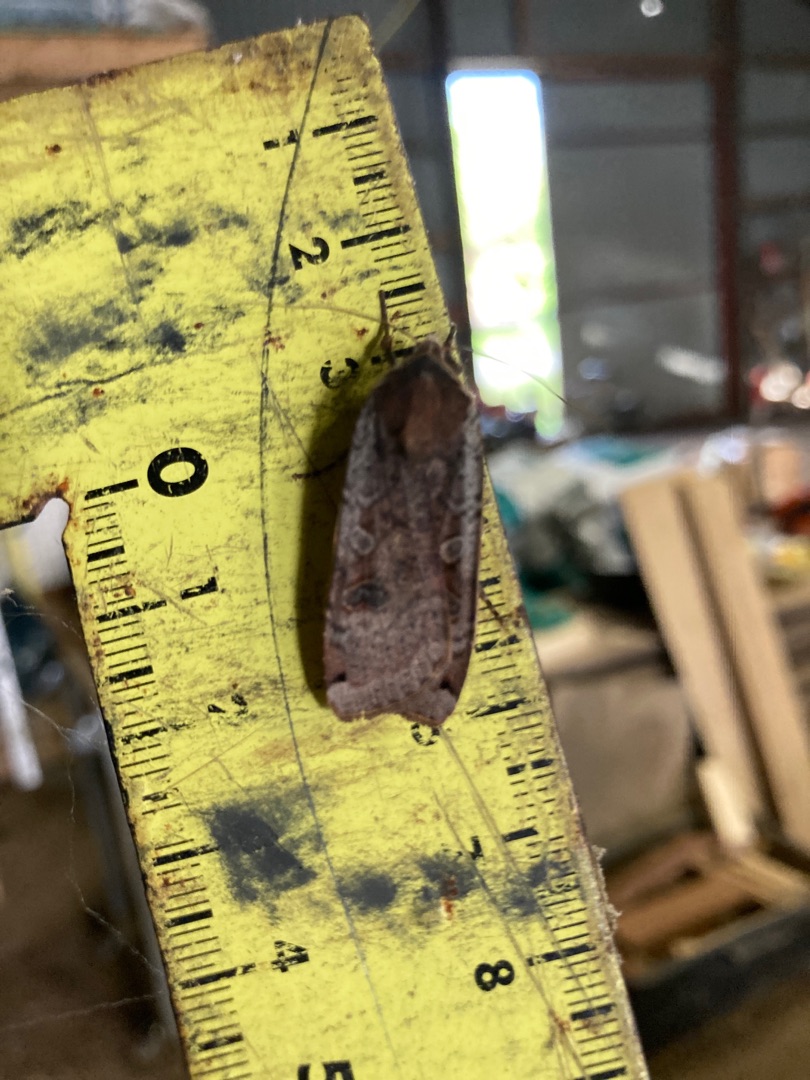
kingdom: Animalia
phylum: Arthropoda
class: Insecta
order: Lepidoptera
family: Noctuidae
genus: Noctua
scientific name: Noctua pronuba
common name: Stor smutugle
